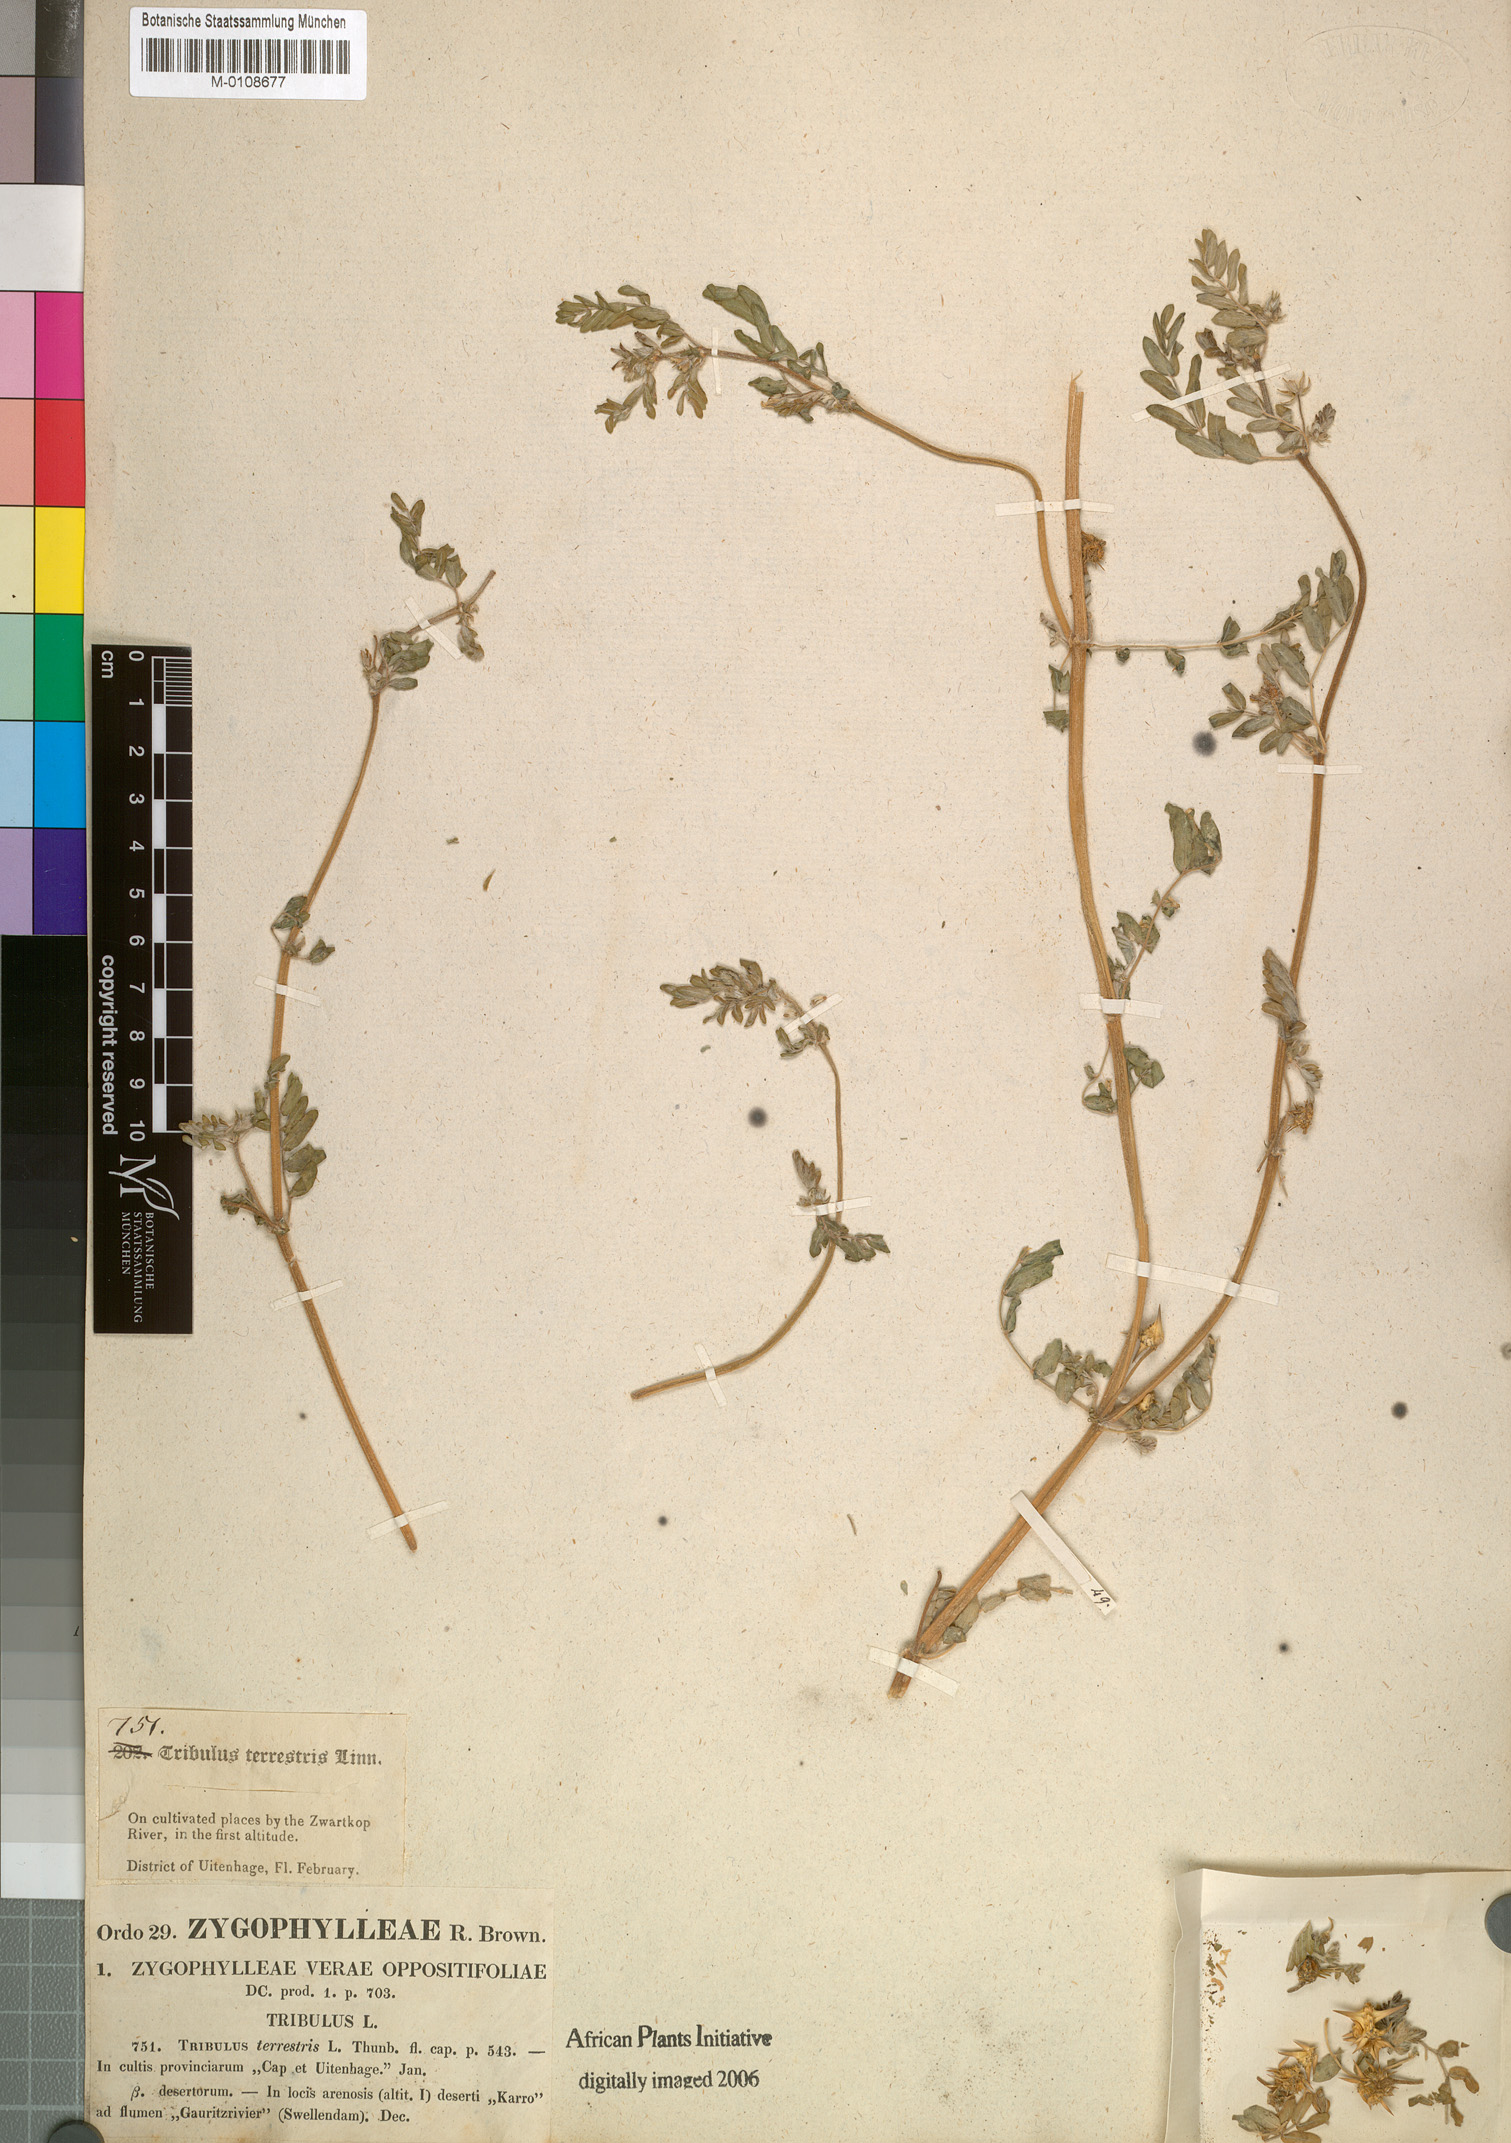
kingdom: Plantae
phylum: Tracheophyta
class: Magnoliopsida
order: Zygophyllales
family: Zygophyllaceae
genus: Tribulus
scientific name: Tribulus terrestris
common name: Puncturevine
